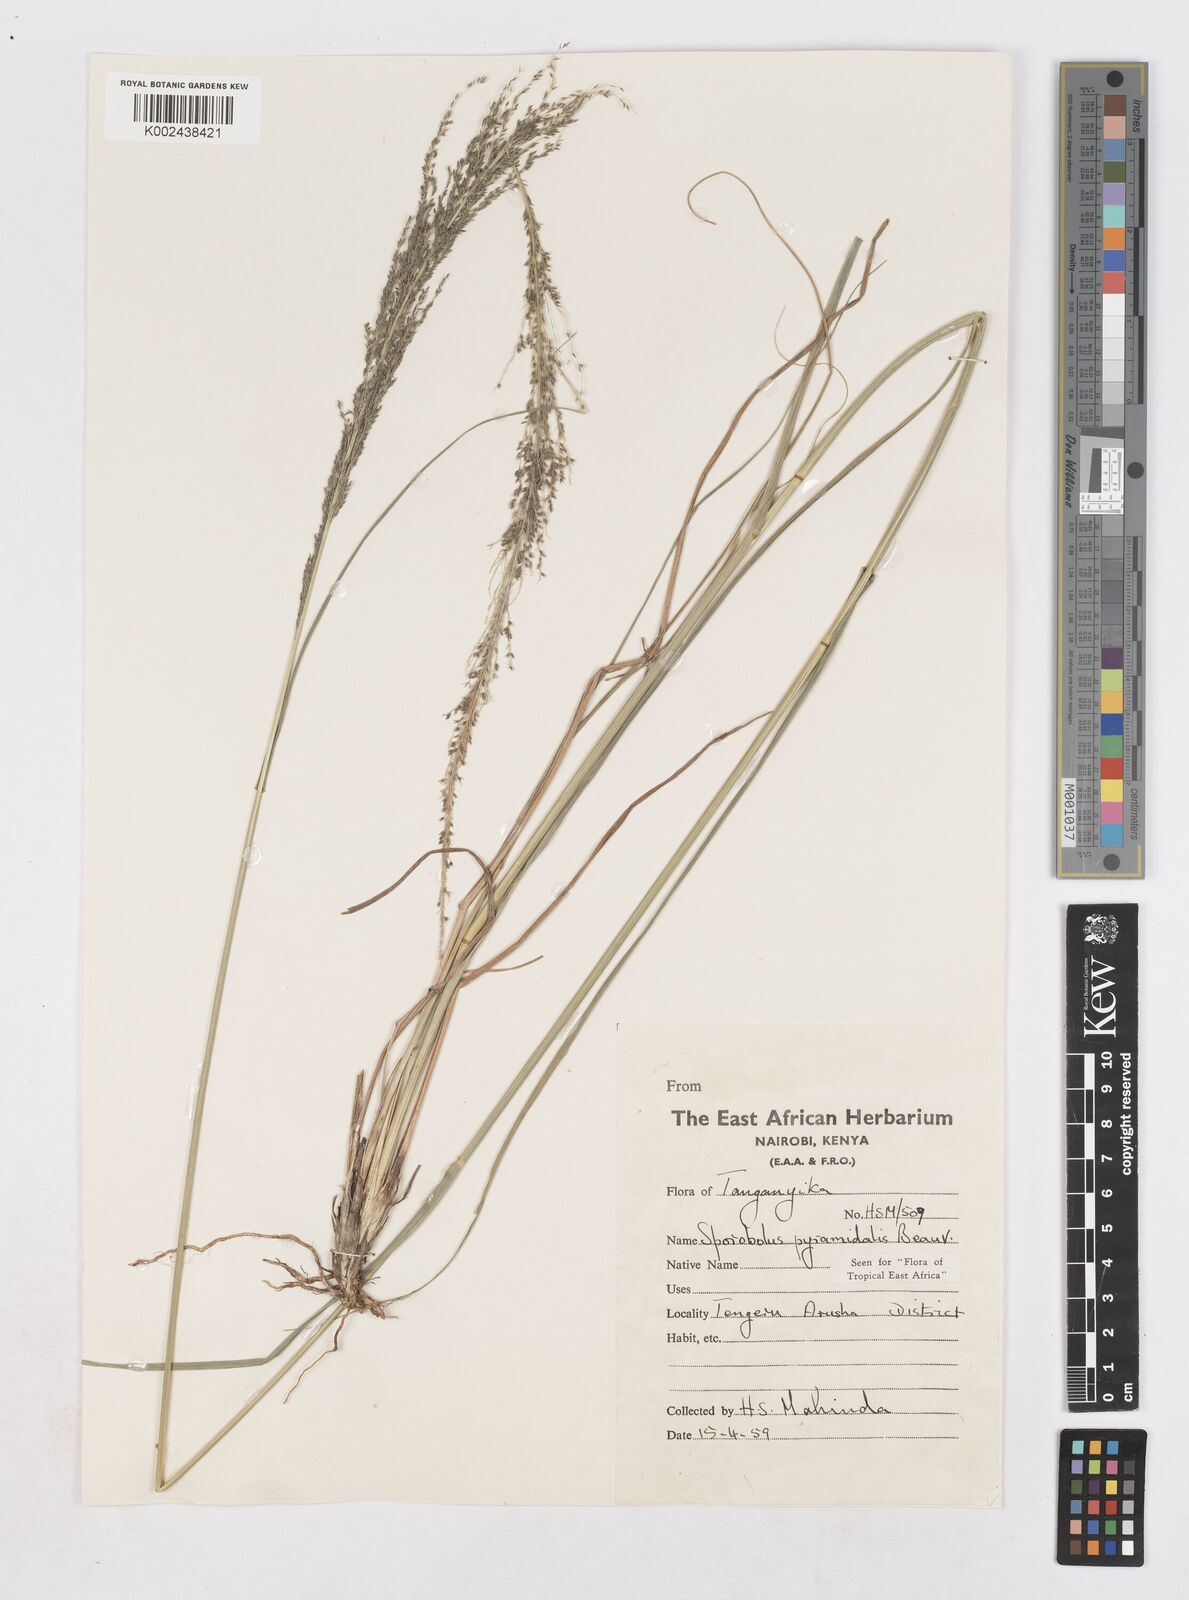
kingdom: Plantae
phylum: Tracheophyta
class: Liliopsida
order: Poales
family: Poaceae
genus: Sporobolus
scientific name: Sporobolus pyramidalis
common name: West indian dropseed
